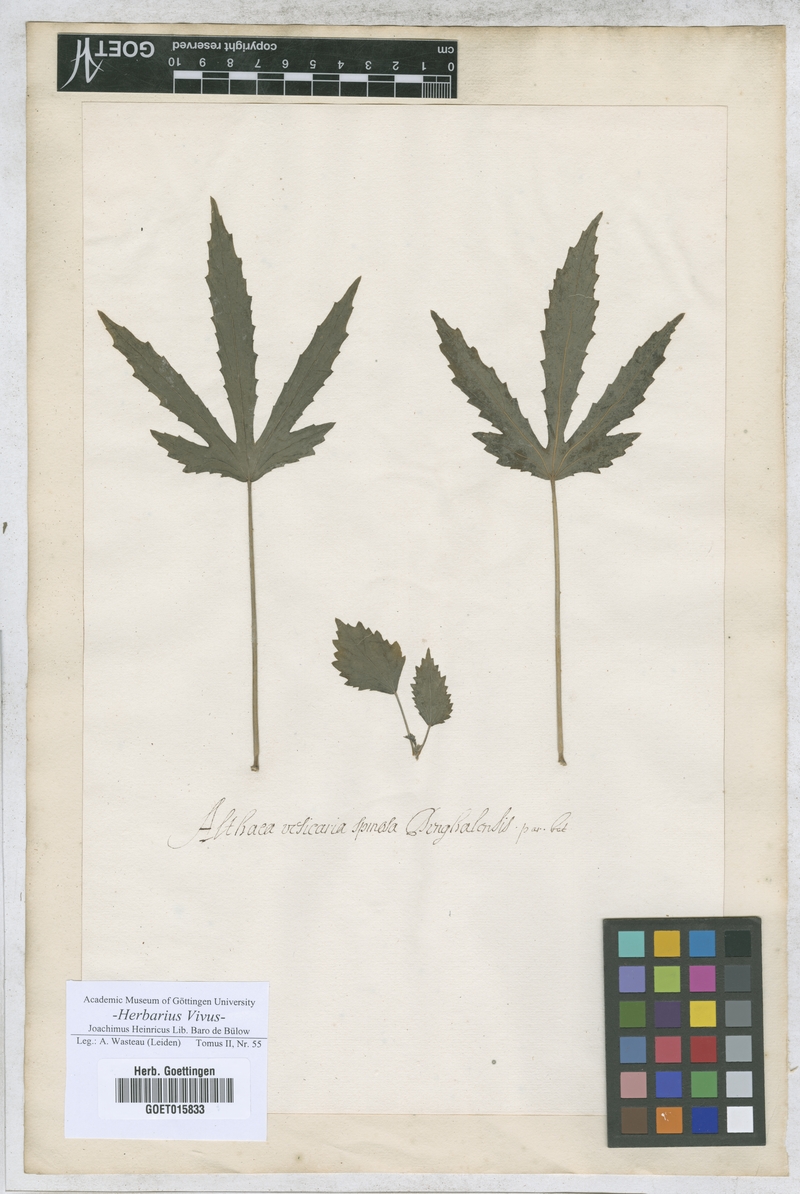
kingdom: Plantae
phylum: Tracheophyta
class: Magnoliopsida
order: Malvales
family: Malvaceae
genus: Althaea
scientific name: Althaea
